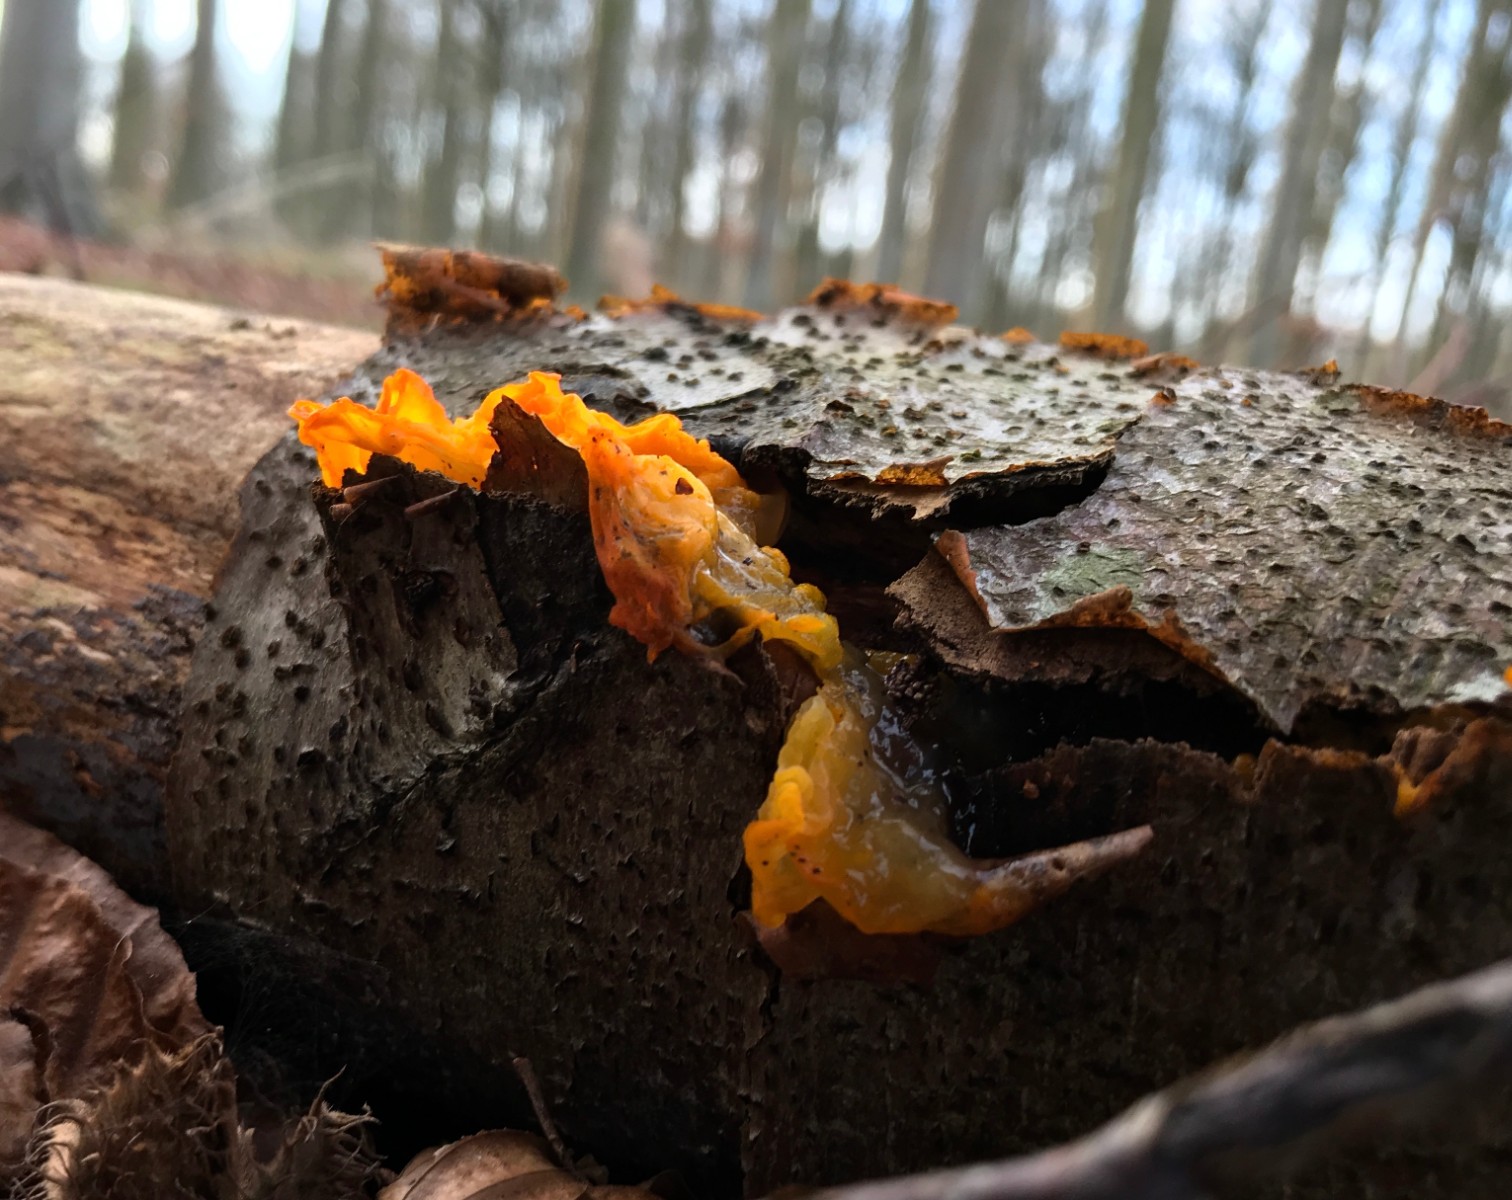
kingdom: Fungi
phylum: Basidiomycota
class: Tremellomycetes
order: Tremellales
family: Tremellaceae
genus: Tremella
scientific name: Tremella mesenterica
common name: gul bævresvamp
